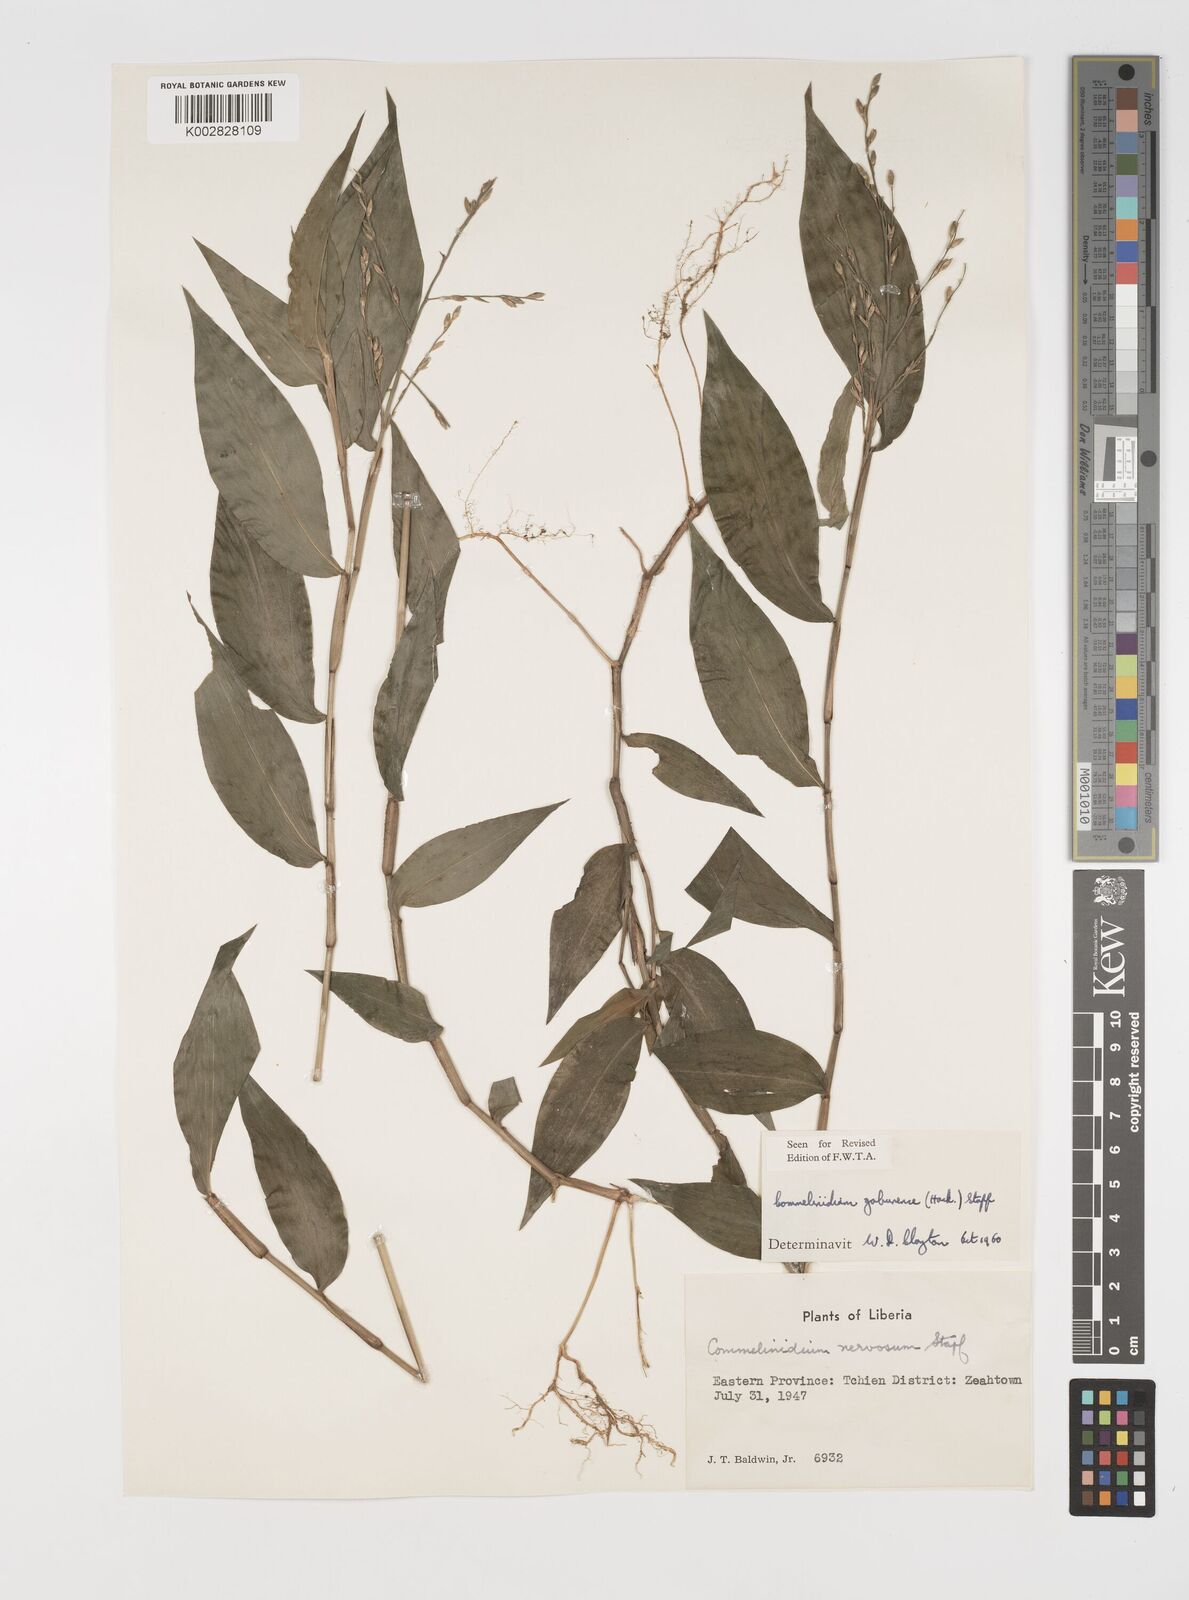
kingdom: Plantae
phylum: Tracheophyta
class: Liliopsida
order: Poales
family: Poaceae
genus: Acroceras
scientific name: Acroceras gabunense
